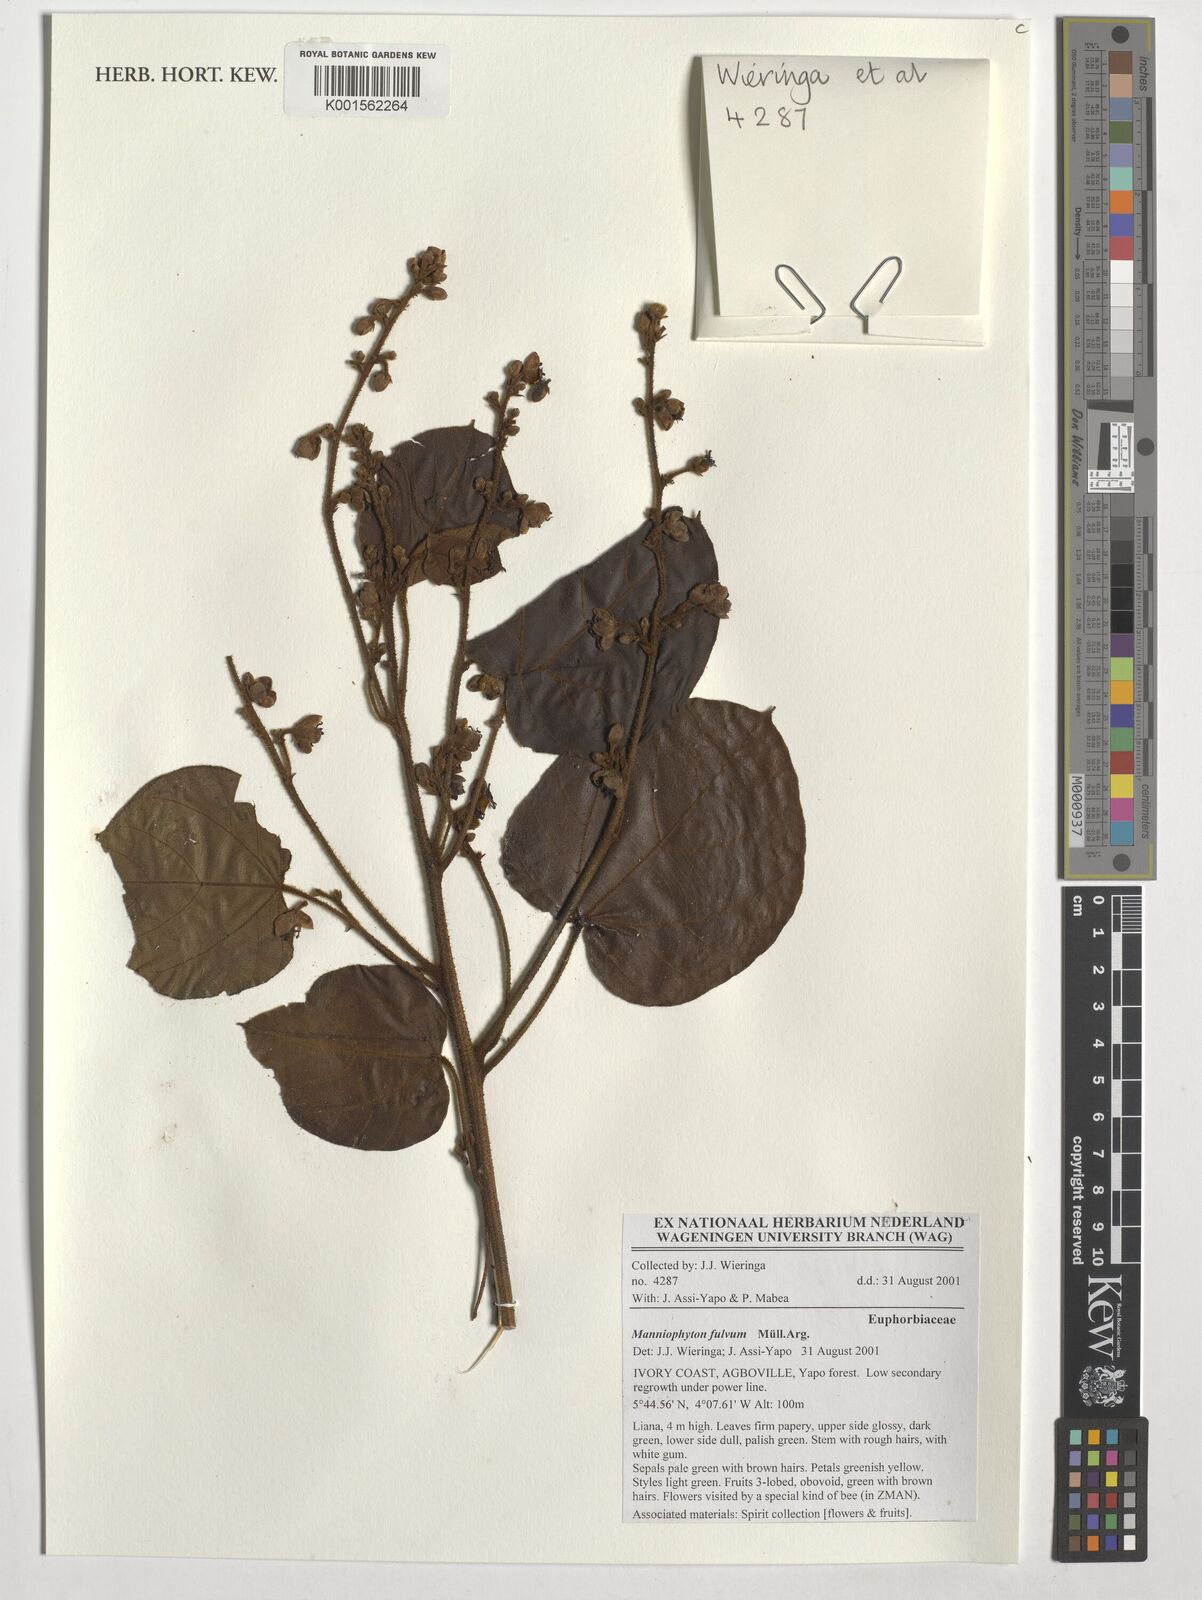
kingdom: Plantae
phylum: Tracheophyta
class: Magnoliopsida
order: Malpighiales
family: Euphorbiaceae
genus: Manniophyton
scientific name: Manniophyton fulvum
